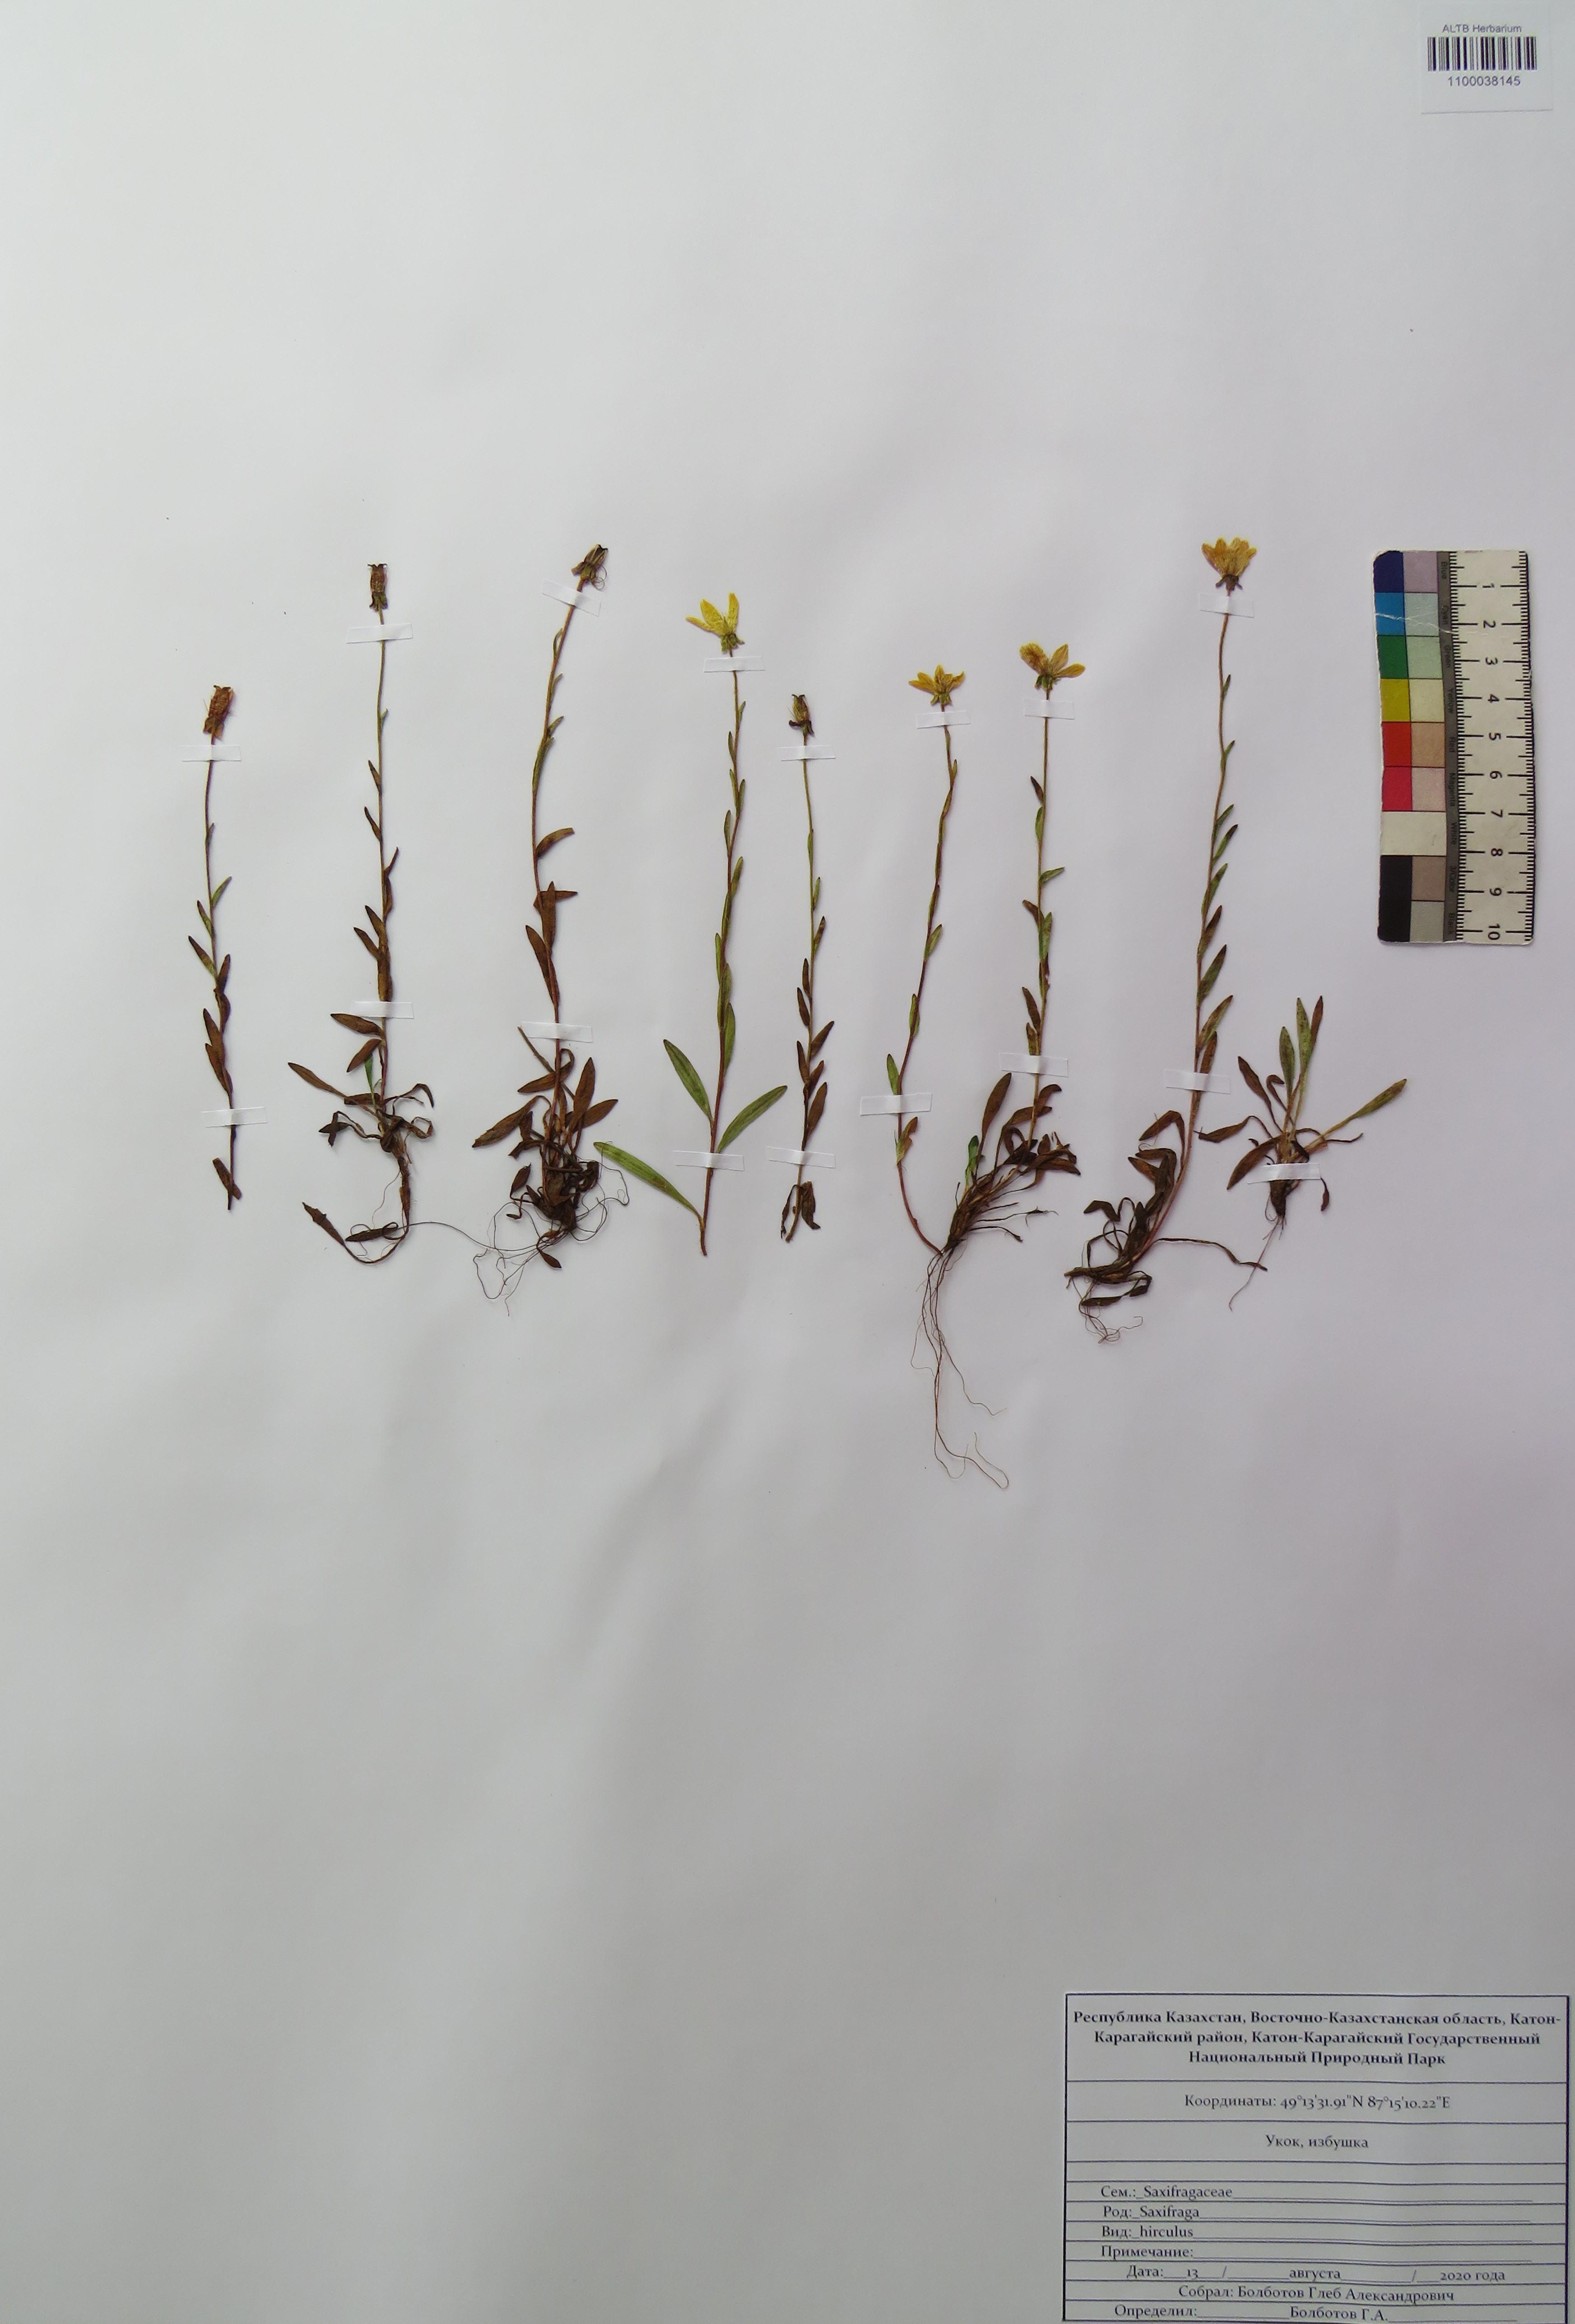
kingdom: Plantae
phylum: Tracheophyta
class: Magnoliopsida
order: Saxifragales
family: Saxifragaceae
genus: Saxifraga
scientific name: Saxifraga hirculus
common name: Yellow marsh saxifrage
